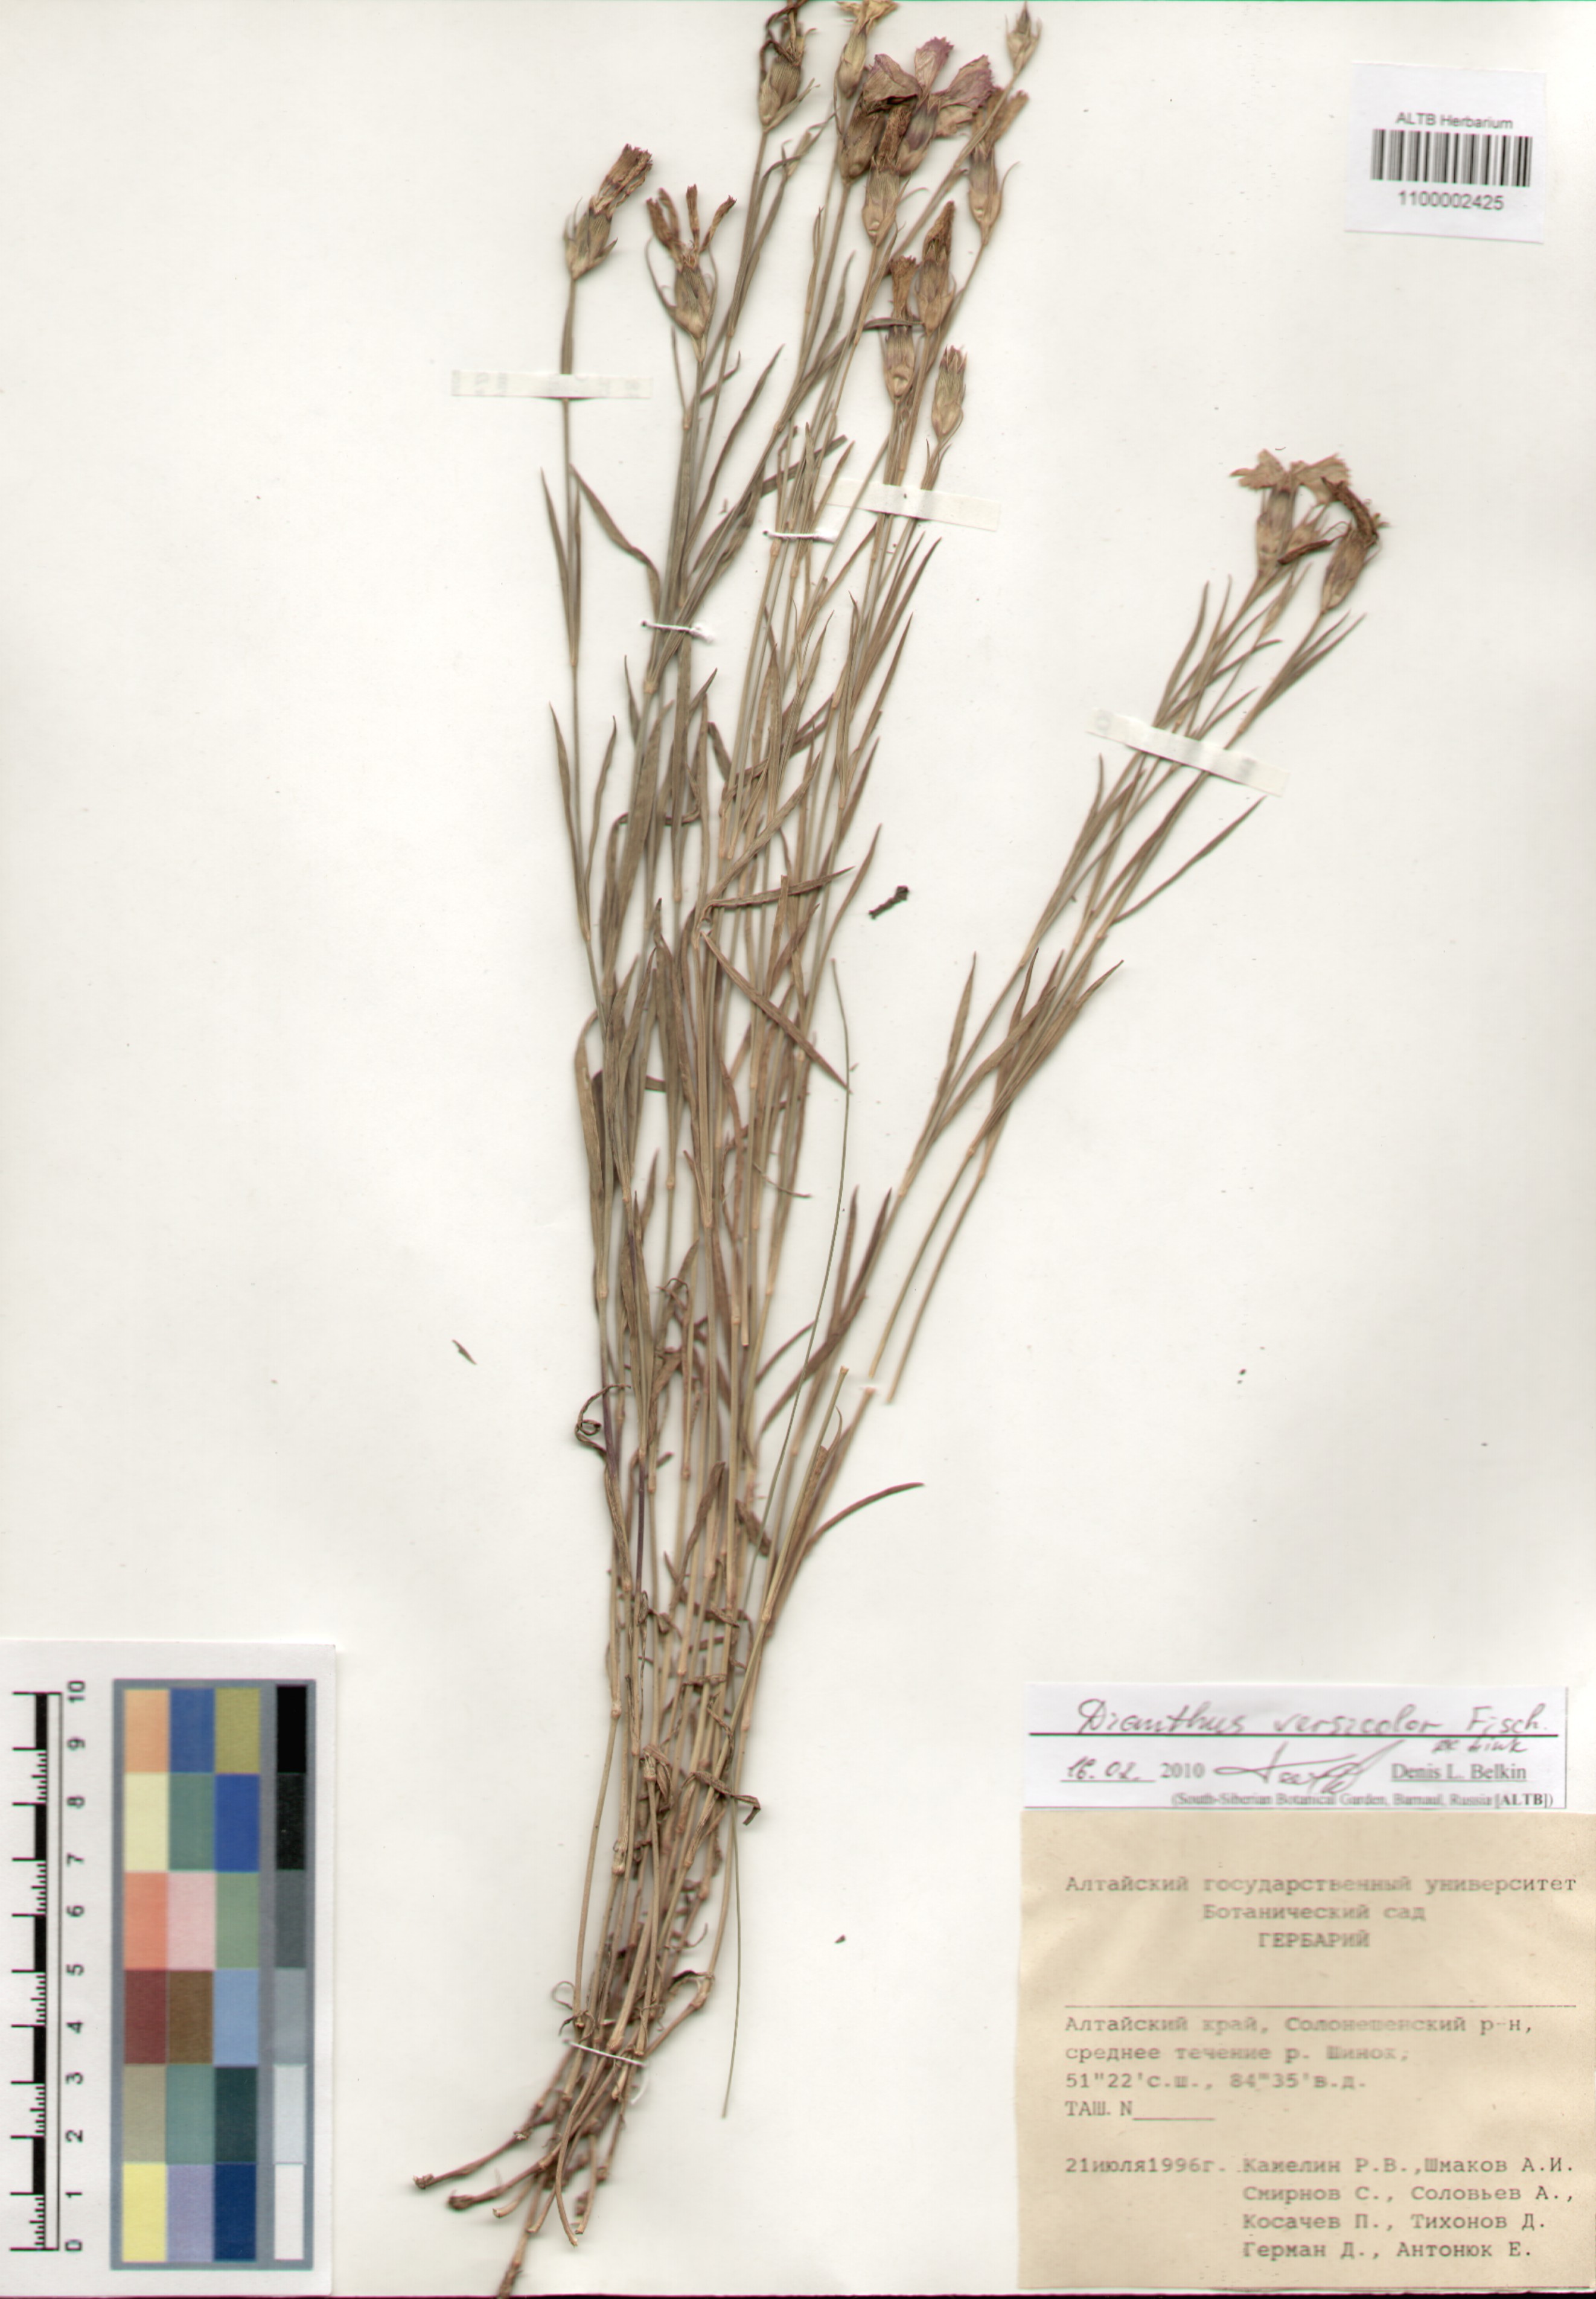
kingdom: Plantae
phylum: Tracheophyta
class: Magnoliopsida
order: Caryophyllales
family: Caryophyllaceae
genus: Dianthus
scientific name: Dianthus chinensis
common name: Rainbow pink
